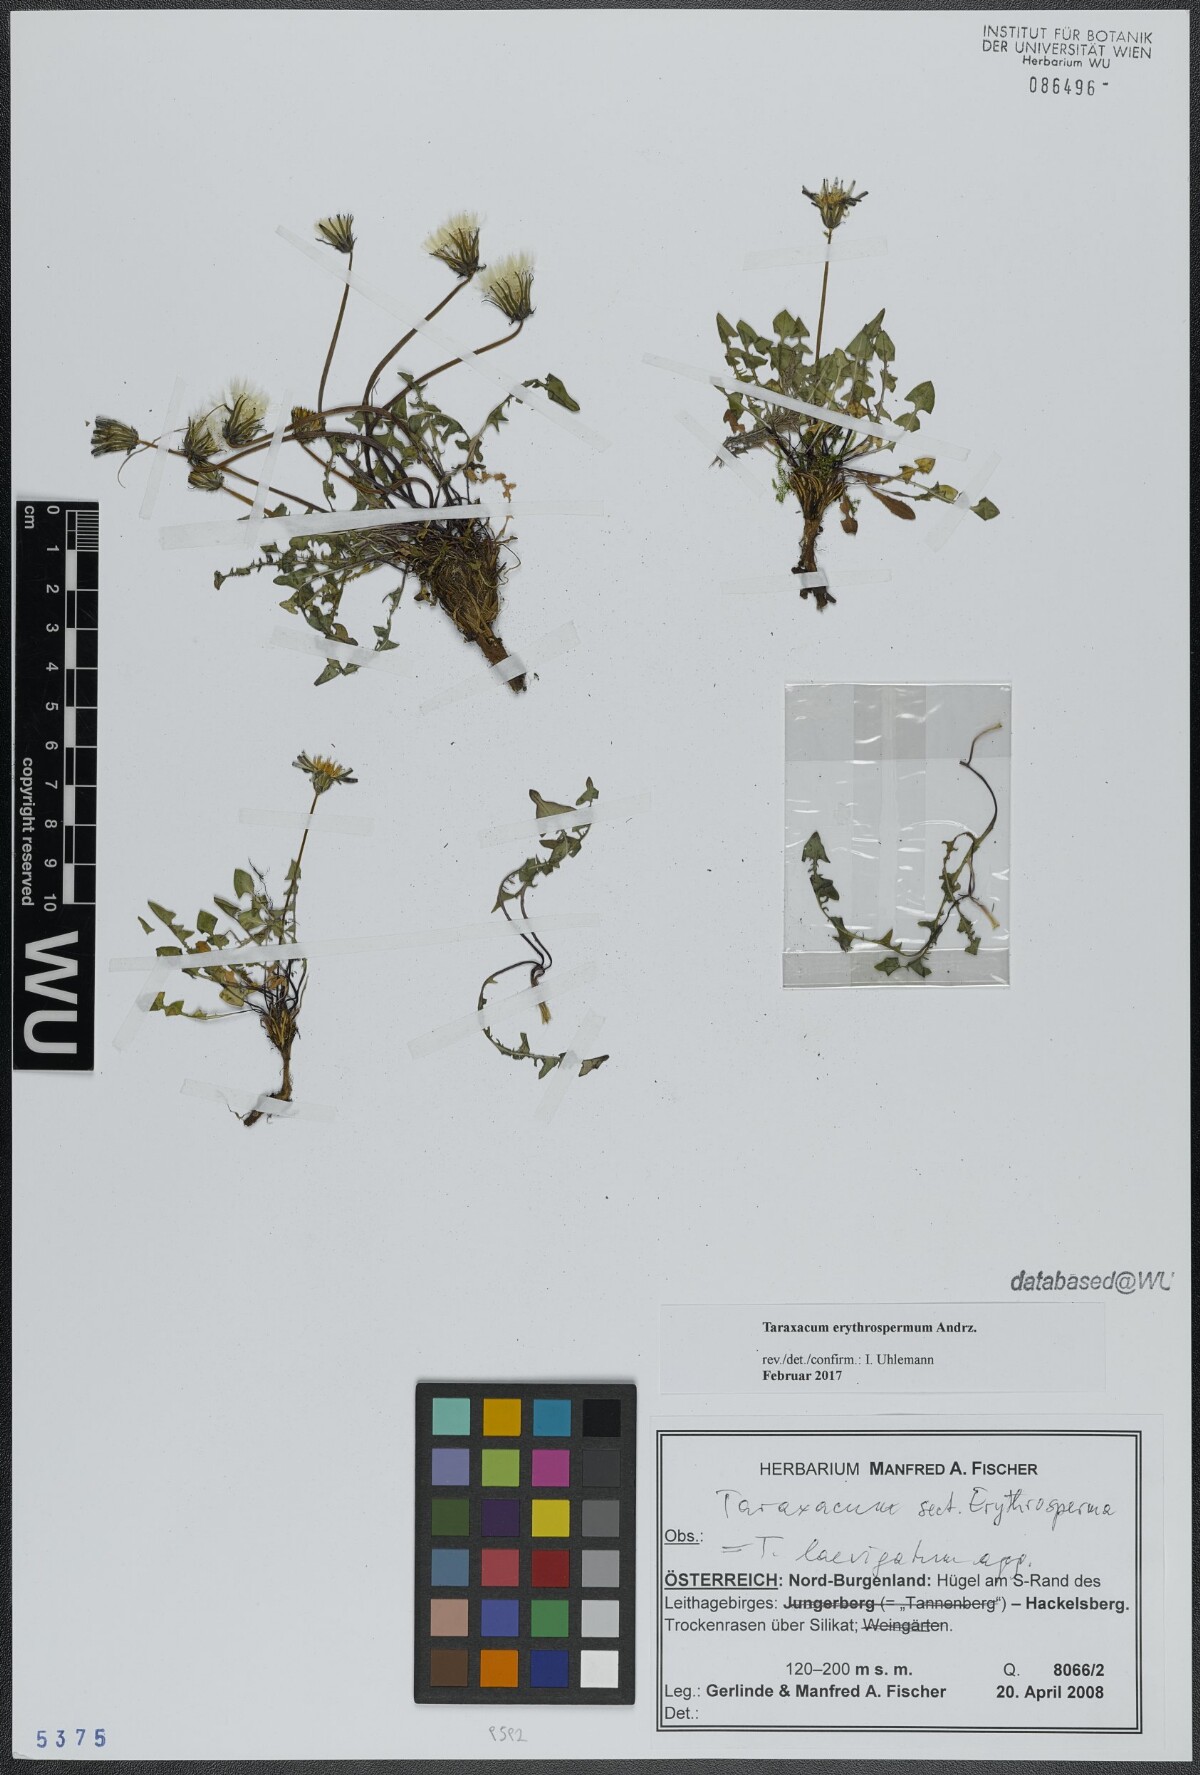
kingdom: Plantae
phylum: Tracheophyta
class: Magnoliopsida
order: Asterales
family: Asteraceae
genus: Taraxacum
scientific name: Taraxacum erythrospermum
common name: Rock dandelion
